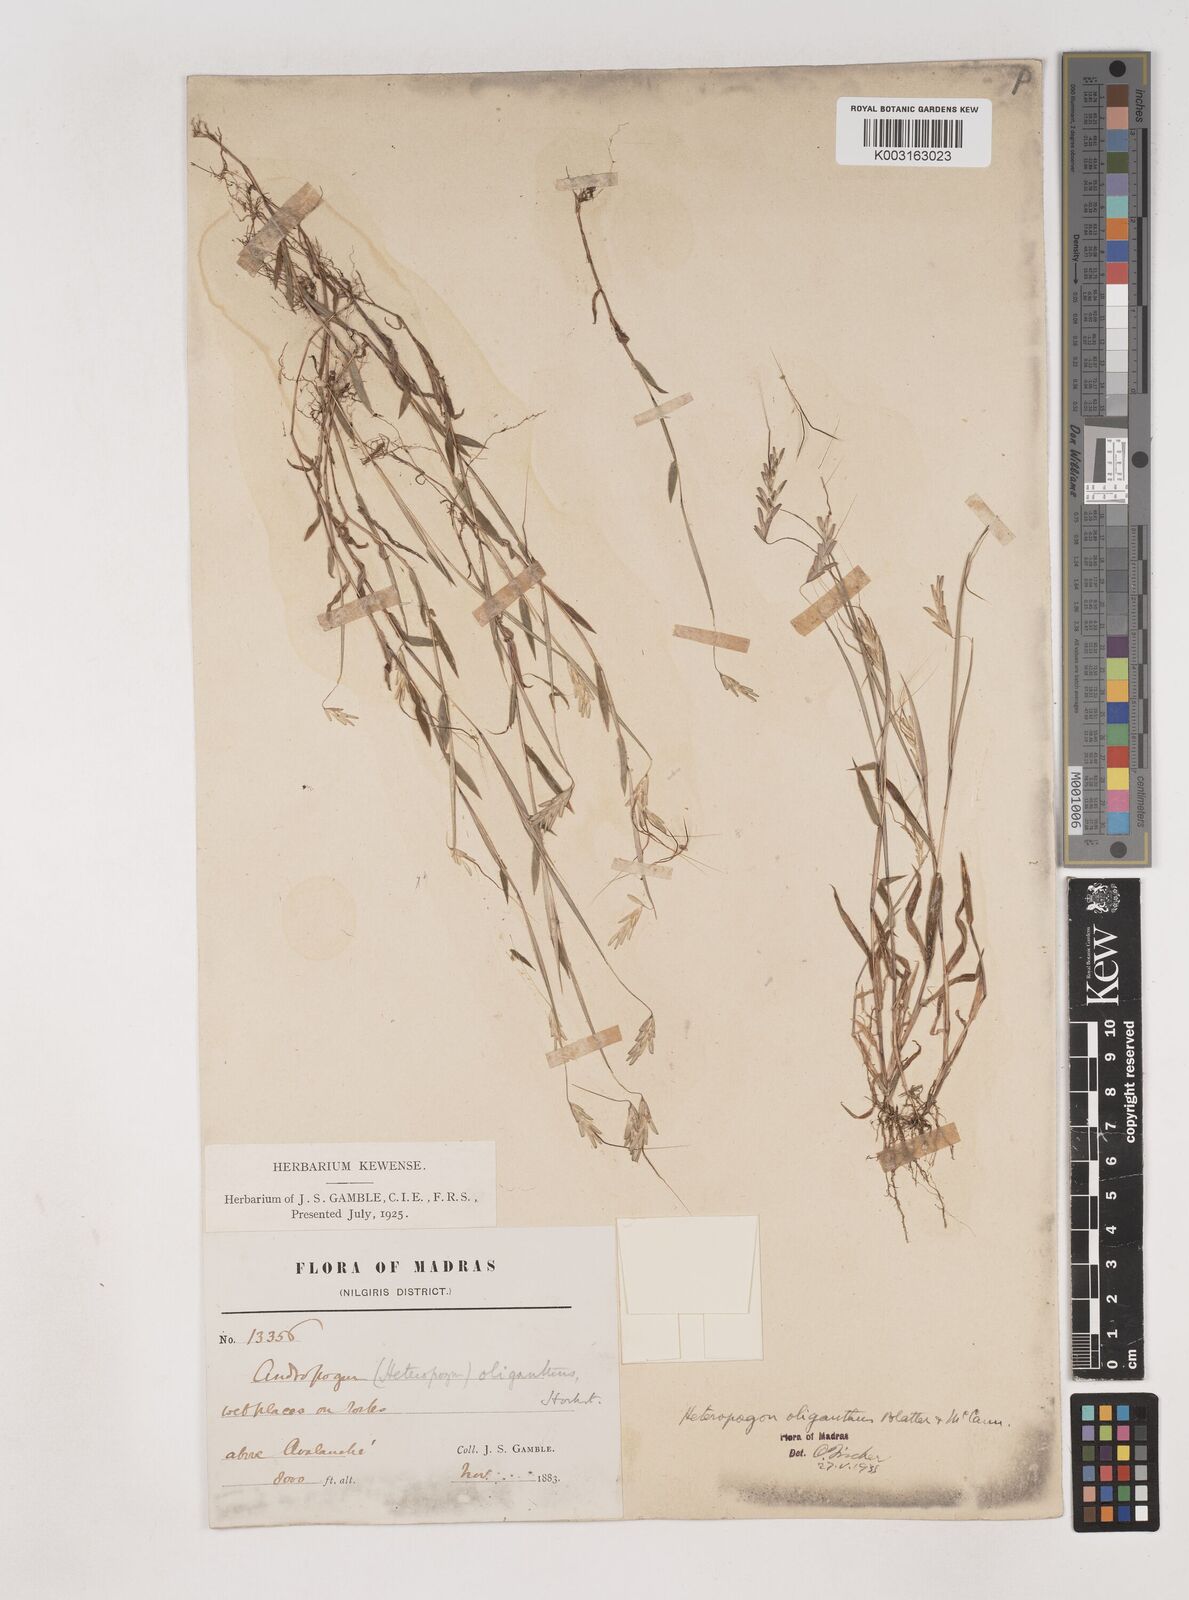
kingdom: Plantae
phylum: Tracheophyta
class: Liliopsida
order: Poales
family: Poaceae
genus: Euclasta
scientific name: Euclasta oligantha
